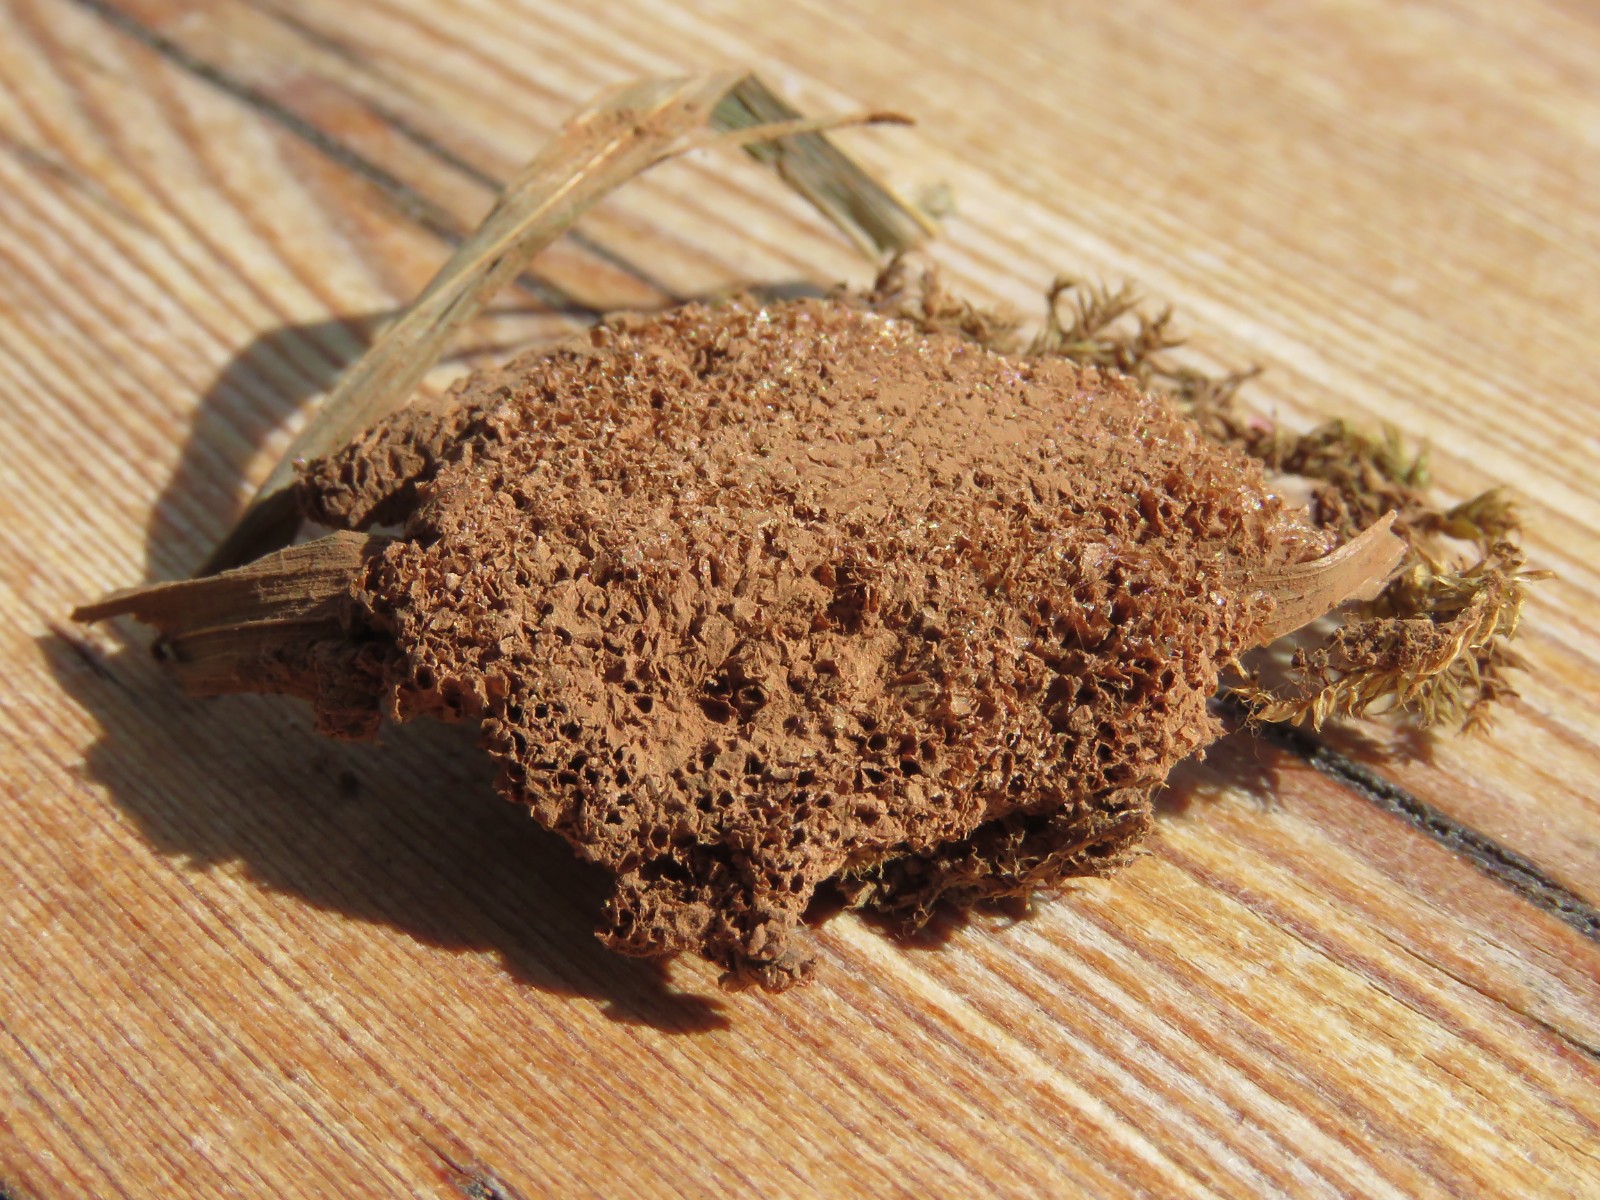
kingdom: Protozoa
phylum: Mycetozoa
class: Myxomycetes
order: Cribrariales
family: Tubiferaceae
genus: Tubifera
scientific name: Tubifera ferruginosa
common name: kanel-støvrør
